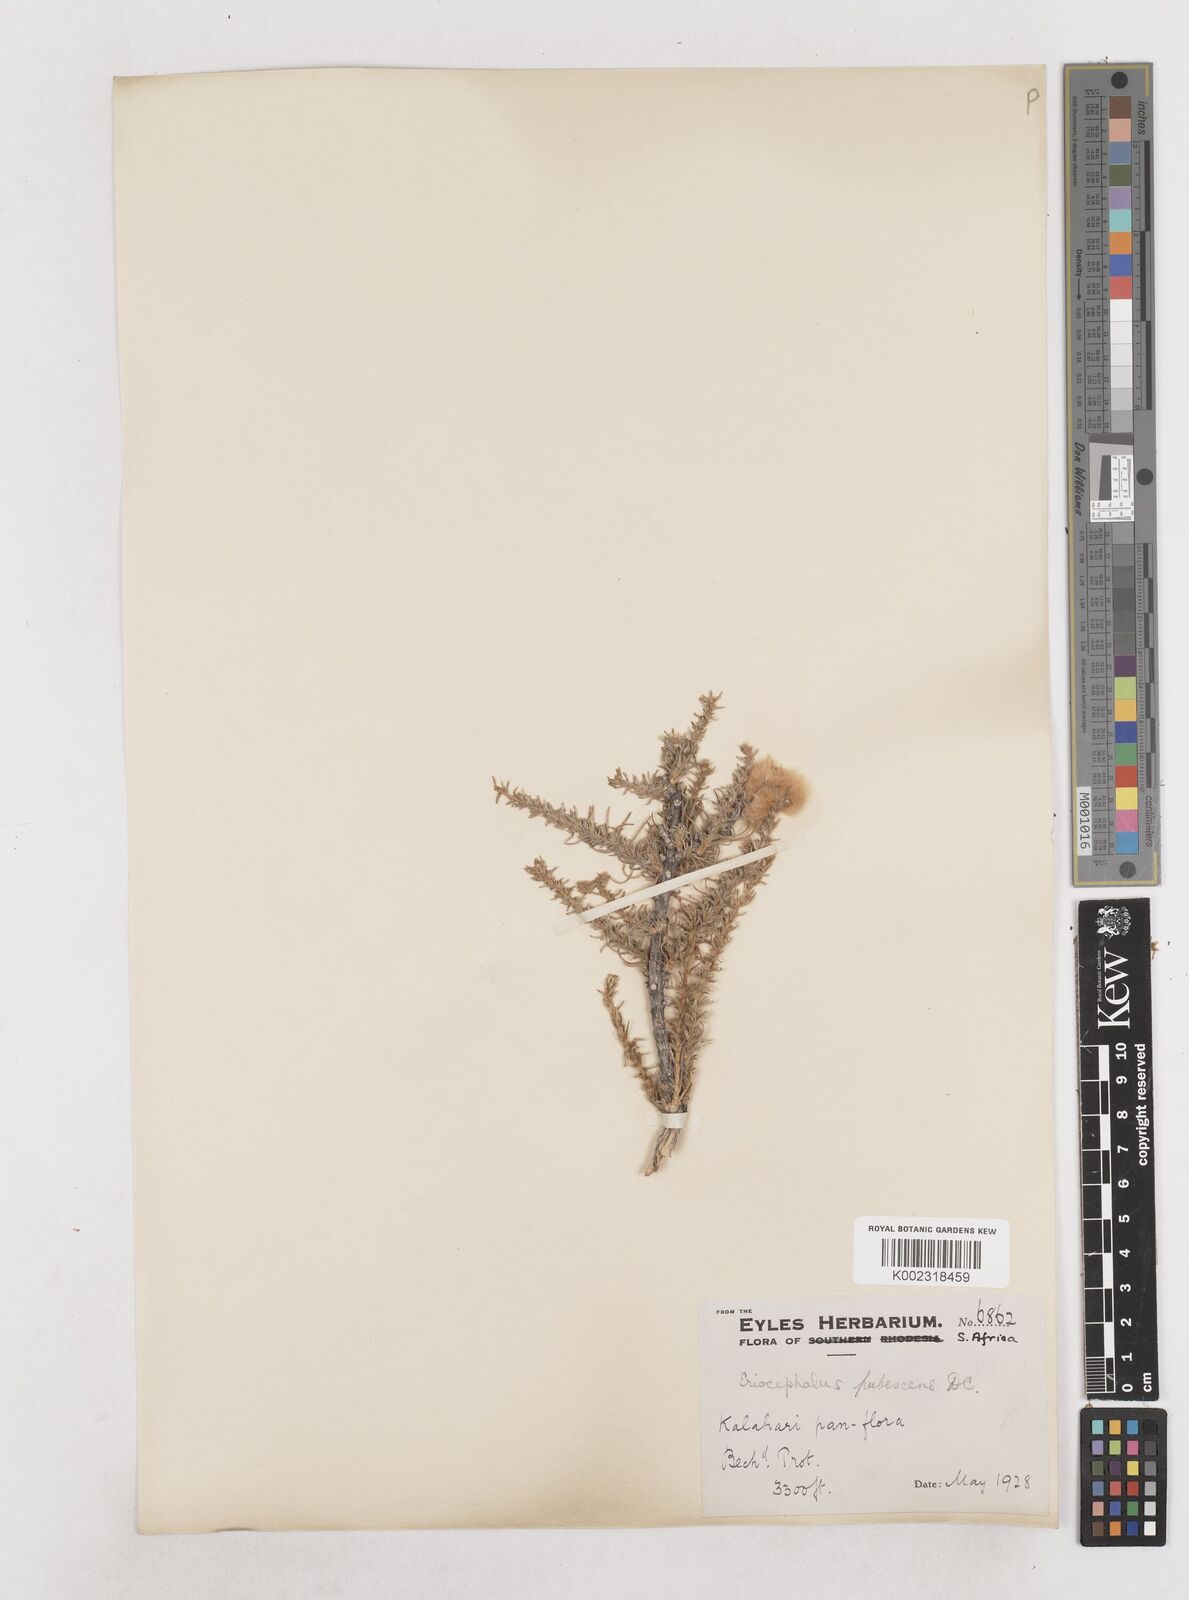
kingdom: Plantae
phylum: Tracheophyta
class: Magnoliopsida
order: Asterales
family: Asteraceae
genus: Eriocephalus
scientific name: Eriocephalus
